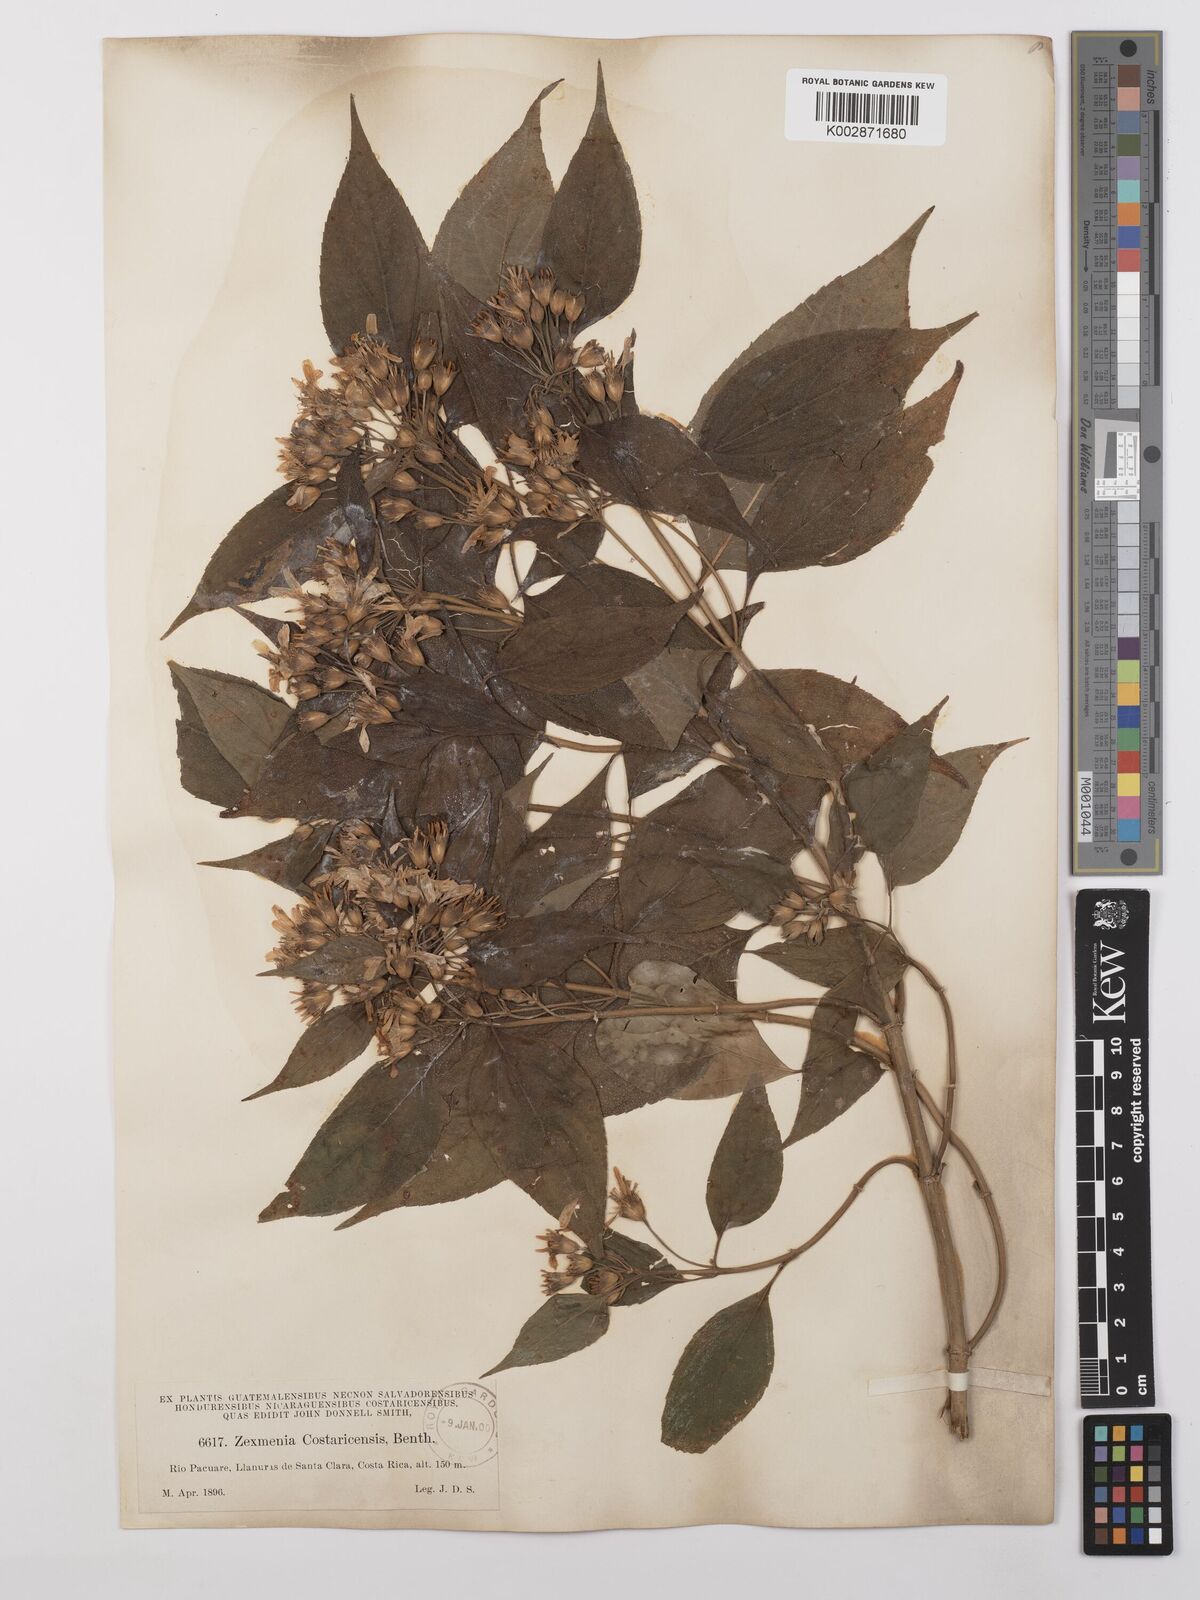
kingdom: Plantae
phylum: Tracheophyta
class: Magnoliopsida
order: Asterales
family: Asteraceae
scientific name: Asteraceae
